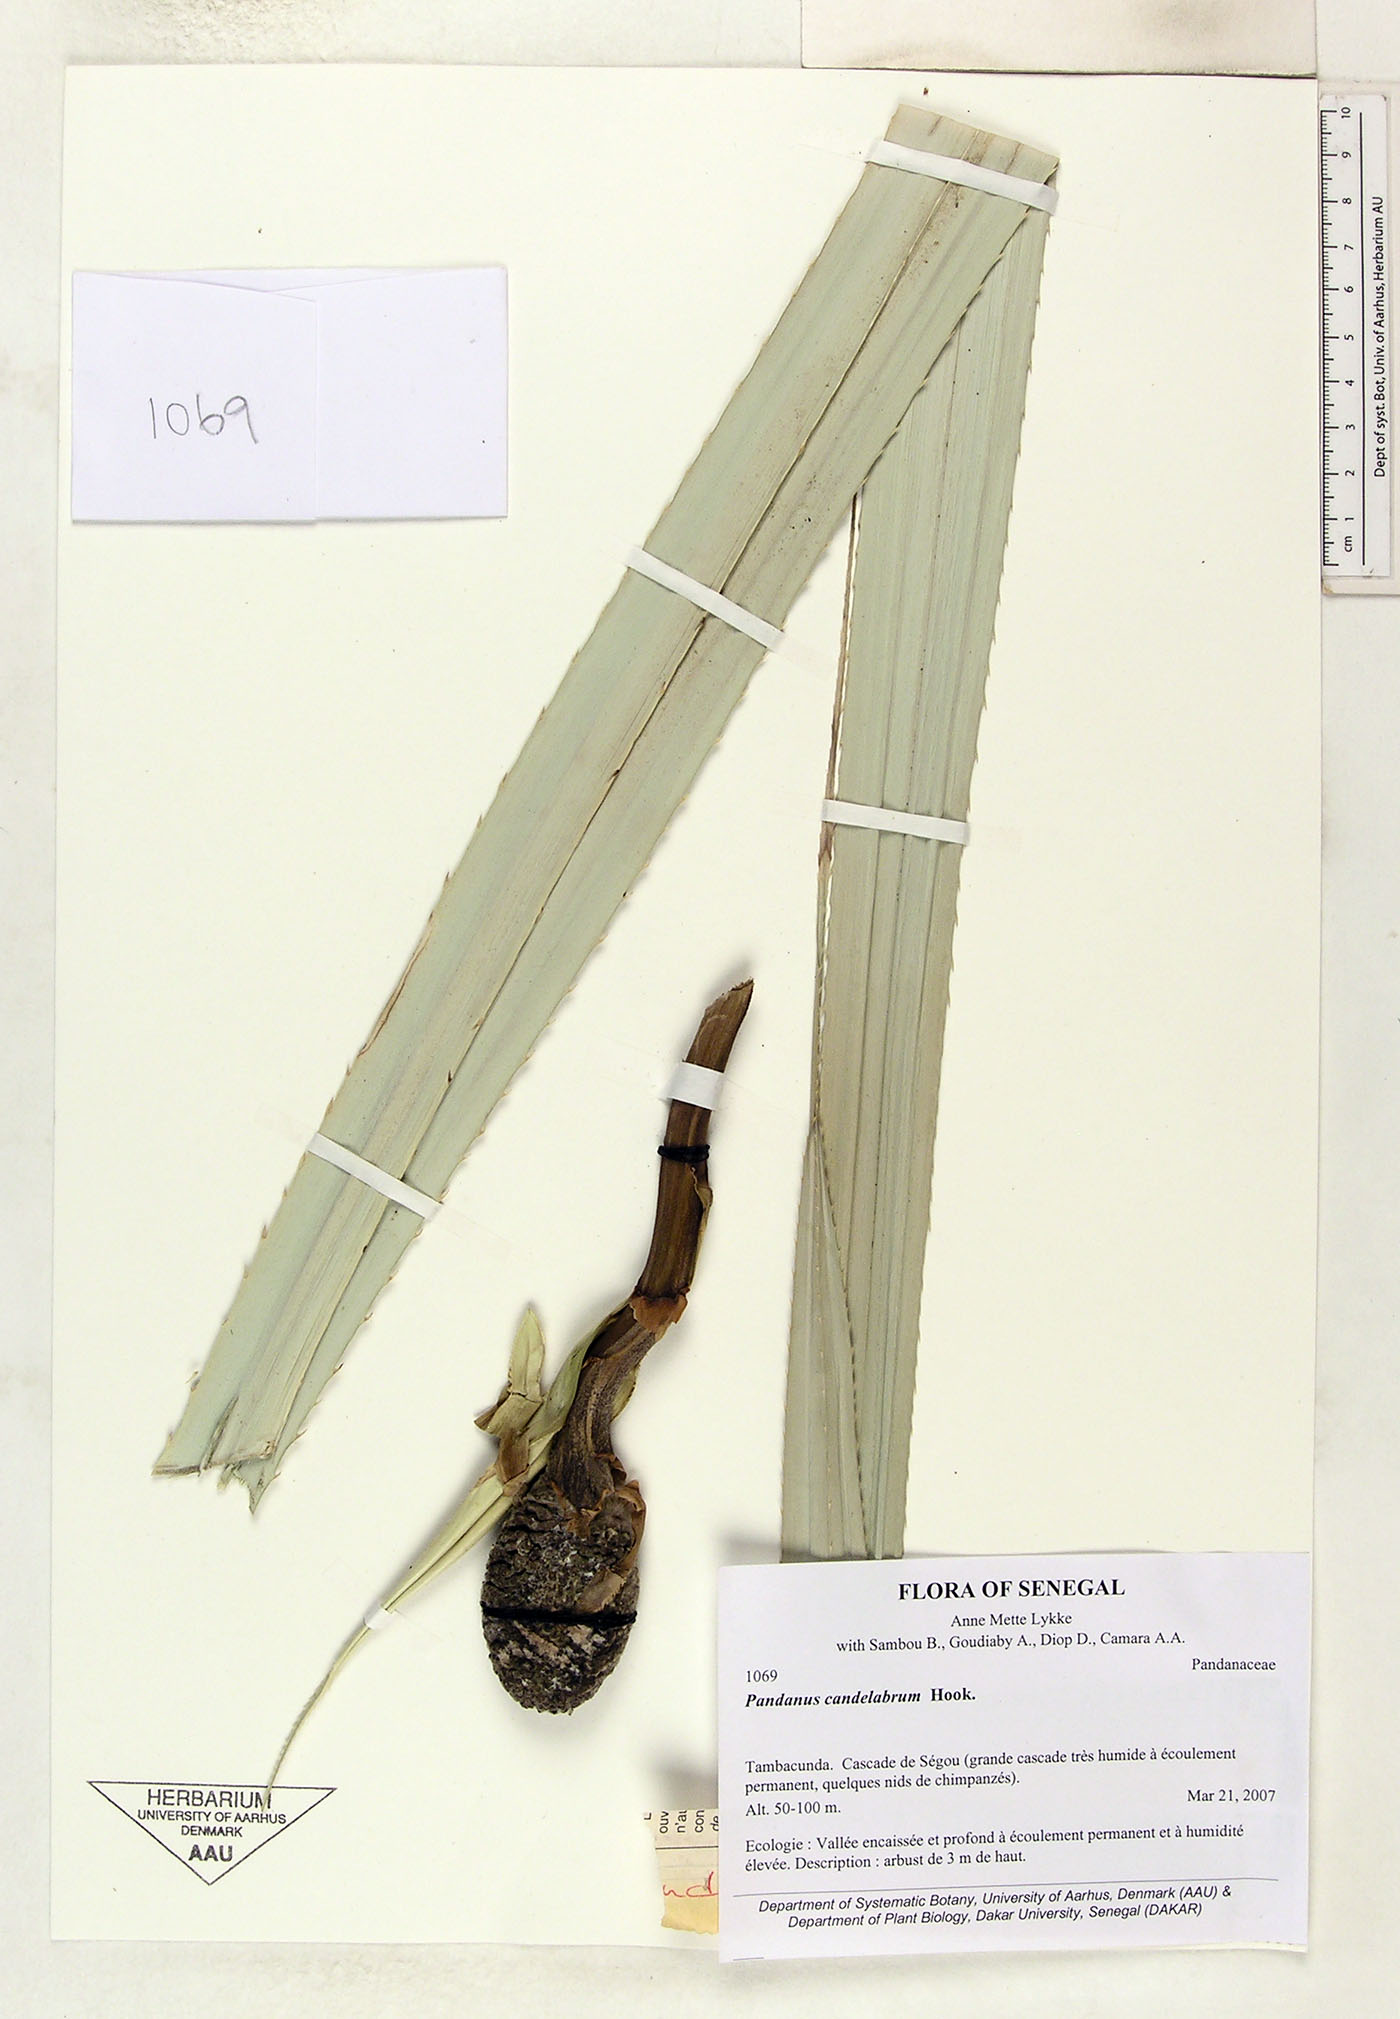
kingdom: Plantae
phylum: Tracheophyta
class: Liliopsida
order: Pandanales
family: Pandanaceae
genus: Pandanus
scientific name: Pandanus senegalensis
